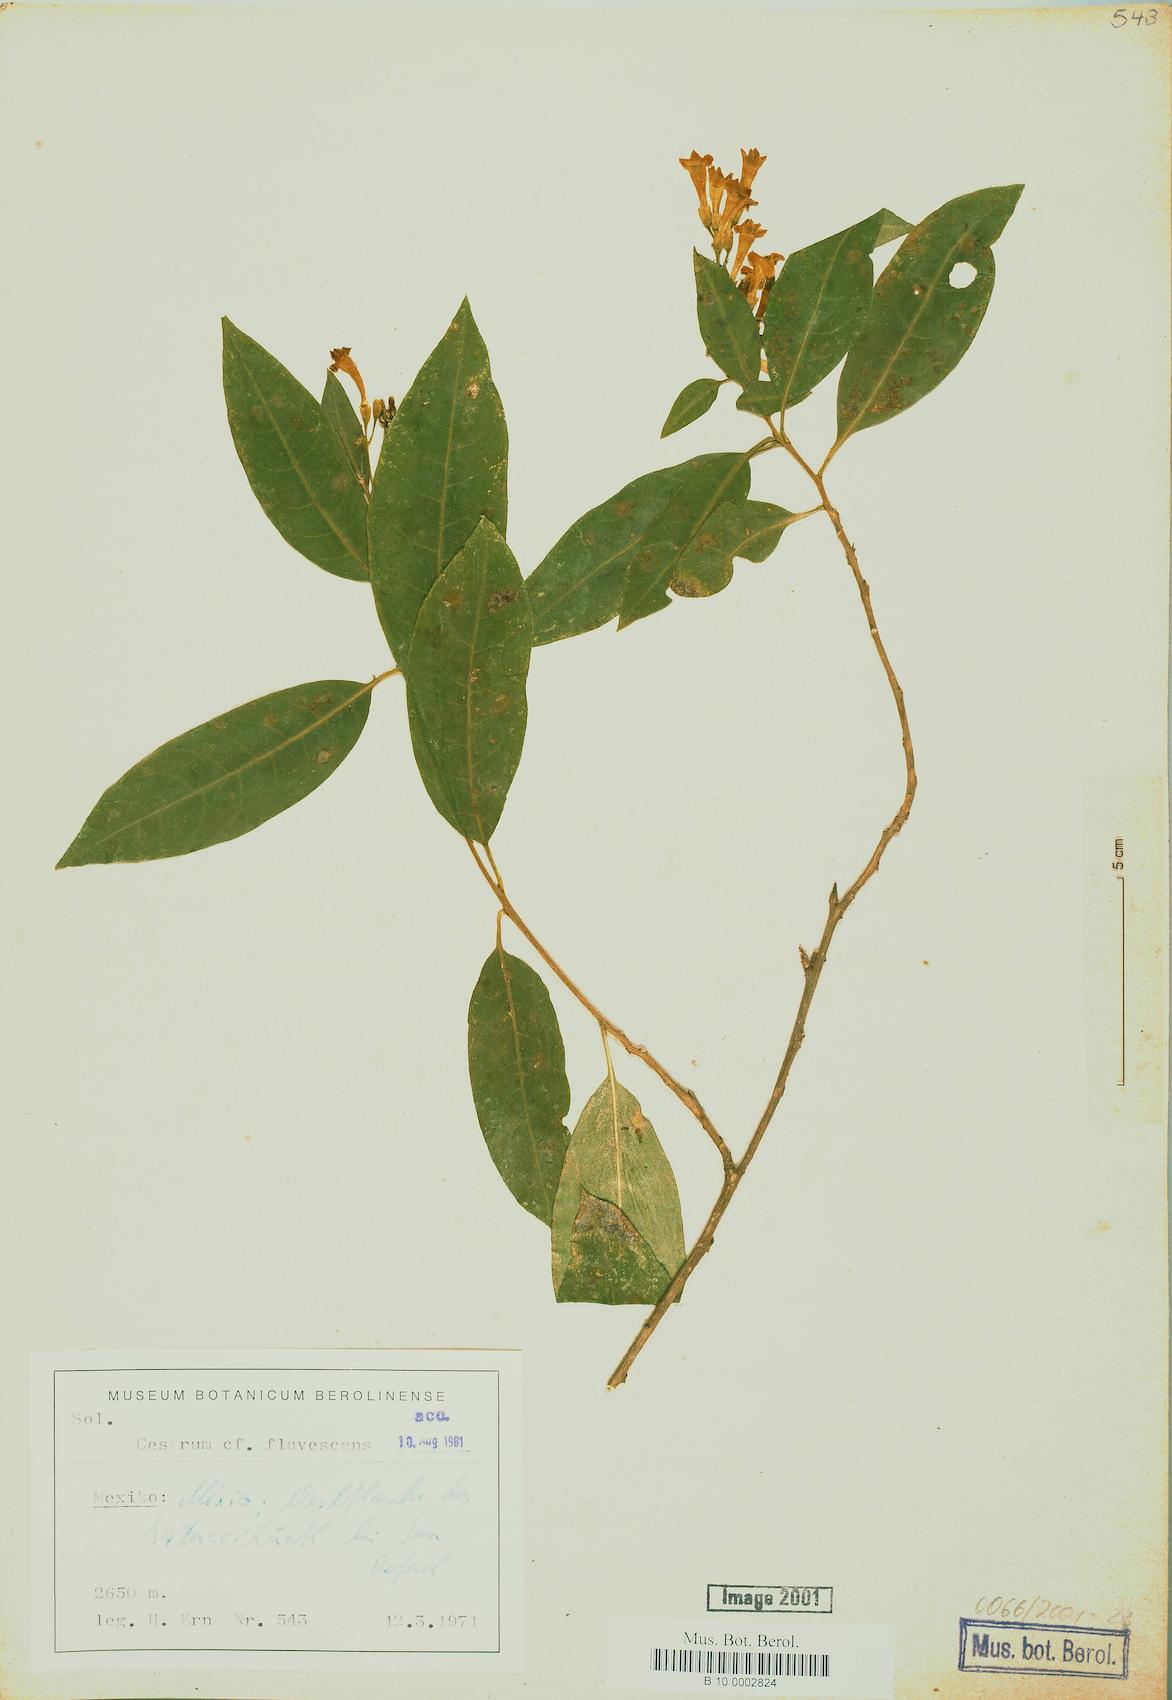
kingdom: Plantae
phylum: Tracheophyta
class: Magnoliopsida
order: Solanales
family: Solanaceae
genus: Cestrum
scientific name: Cestrum flavescens
